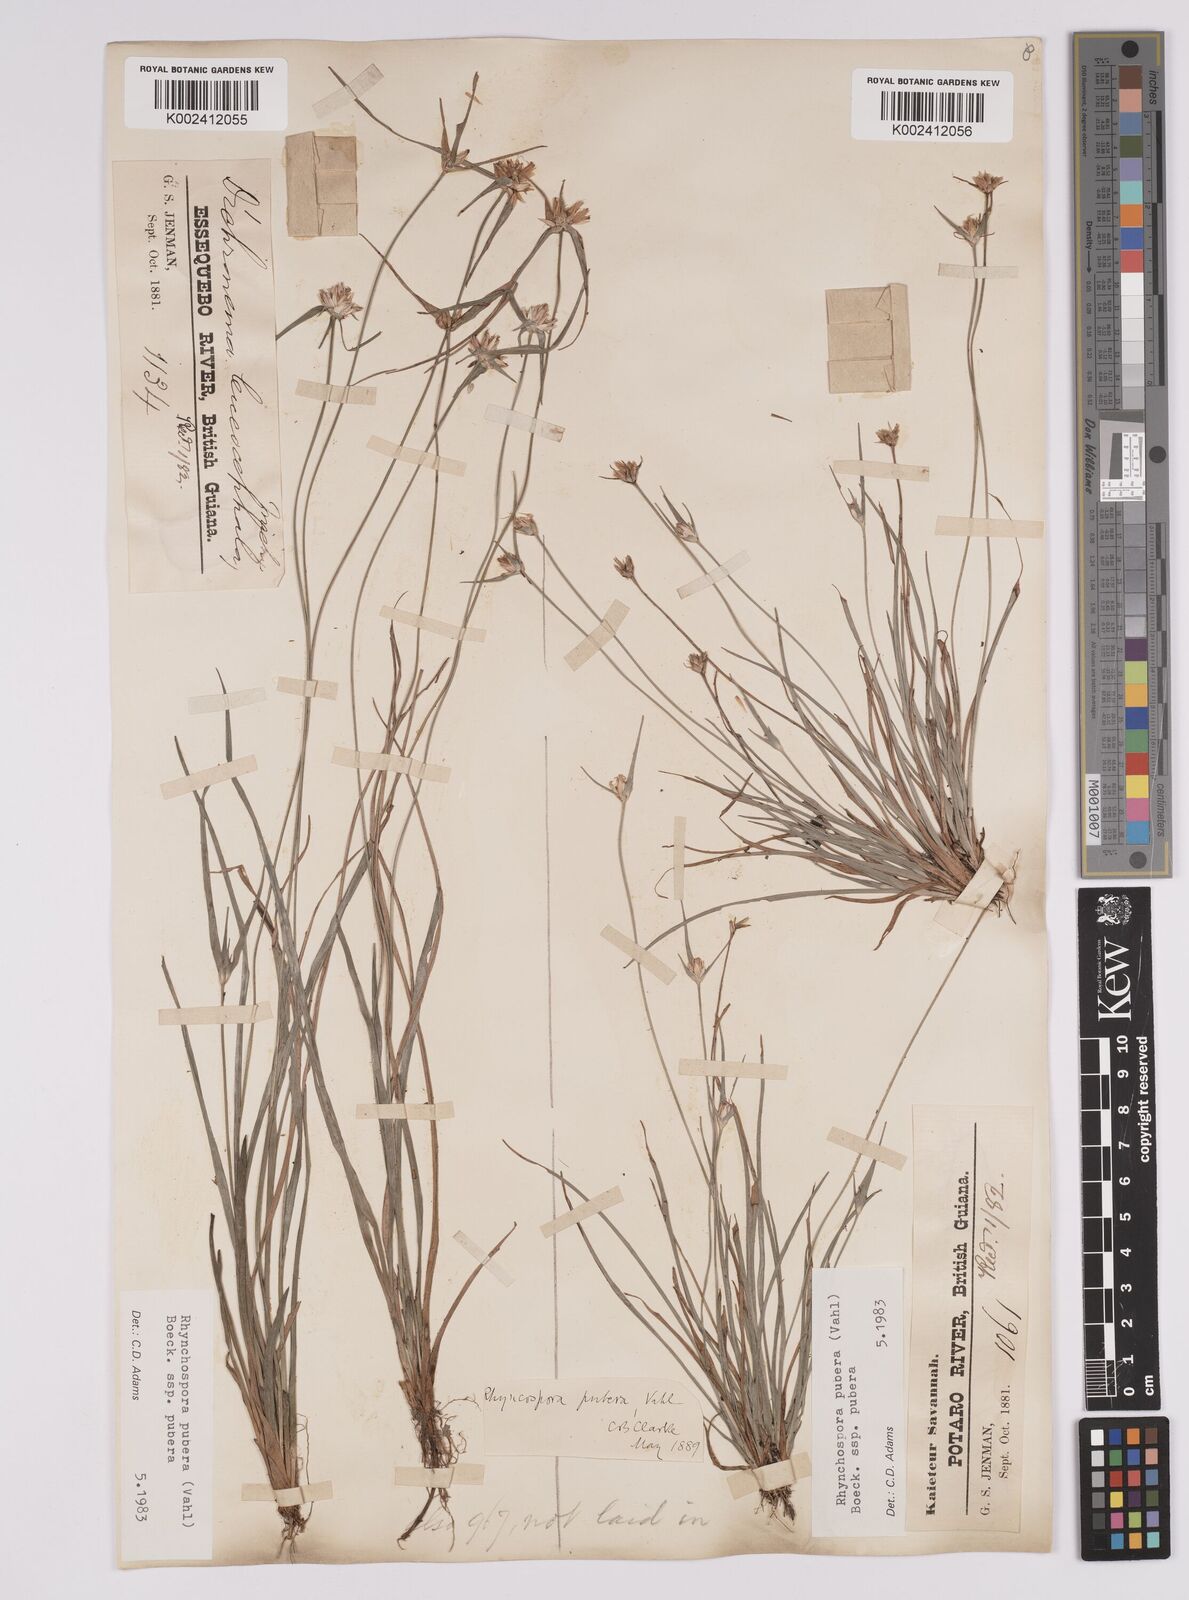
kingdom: Plantae
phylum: Tracheophyta
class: Liliopsida
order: Poales
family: Cyperaceae
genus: Rhynchospora
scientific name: Rhynchospora pubera
